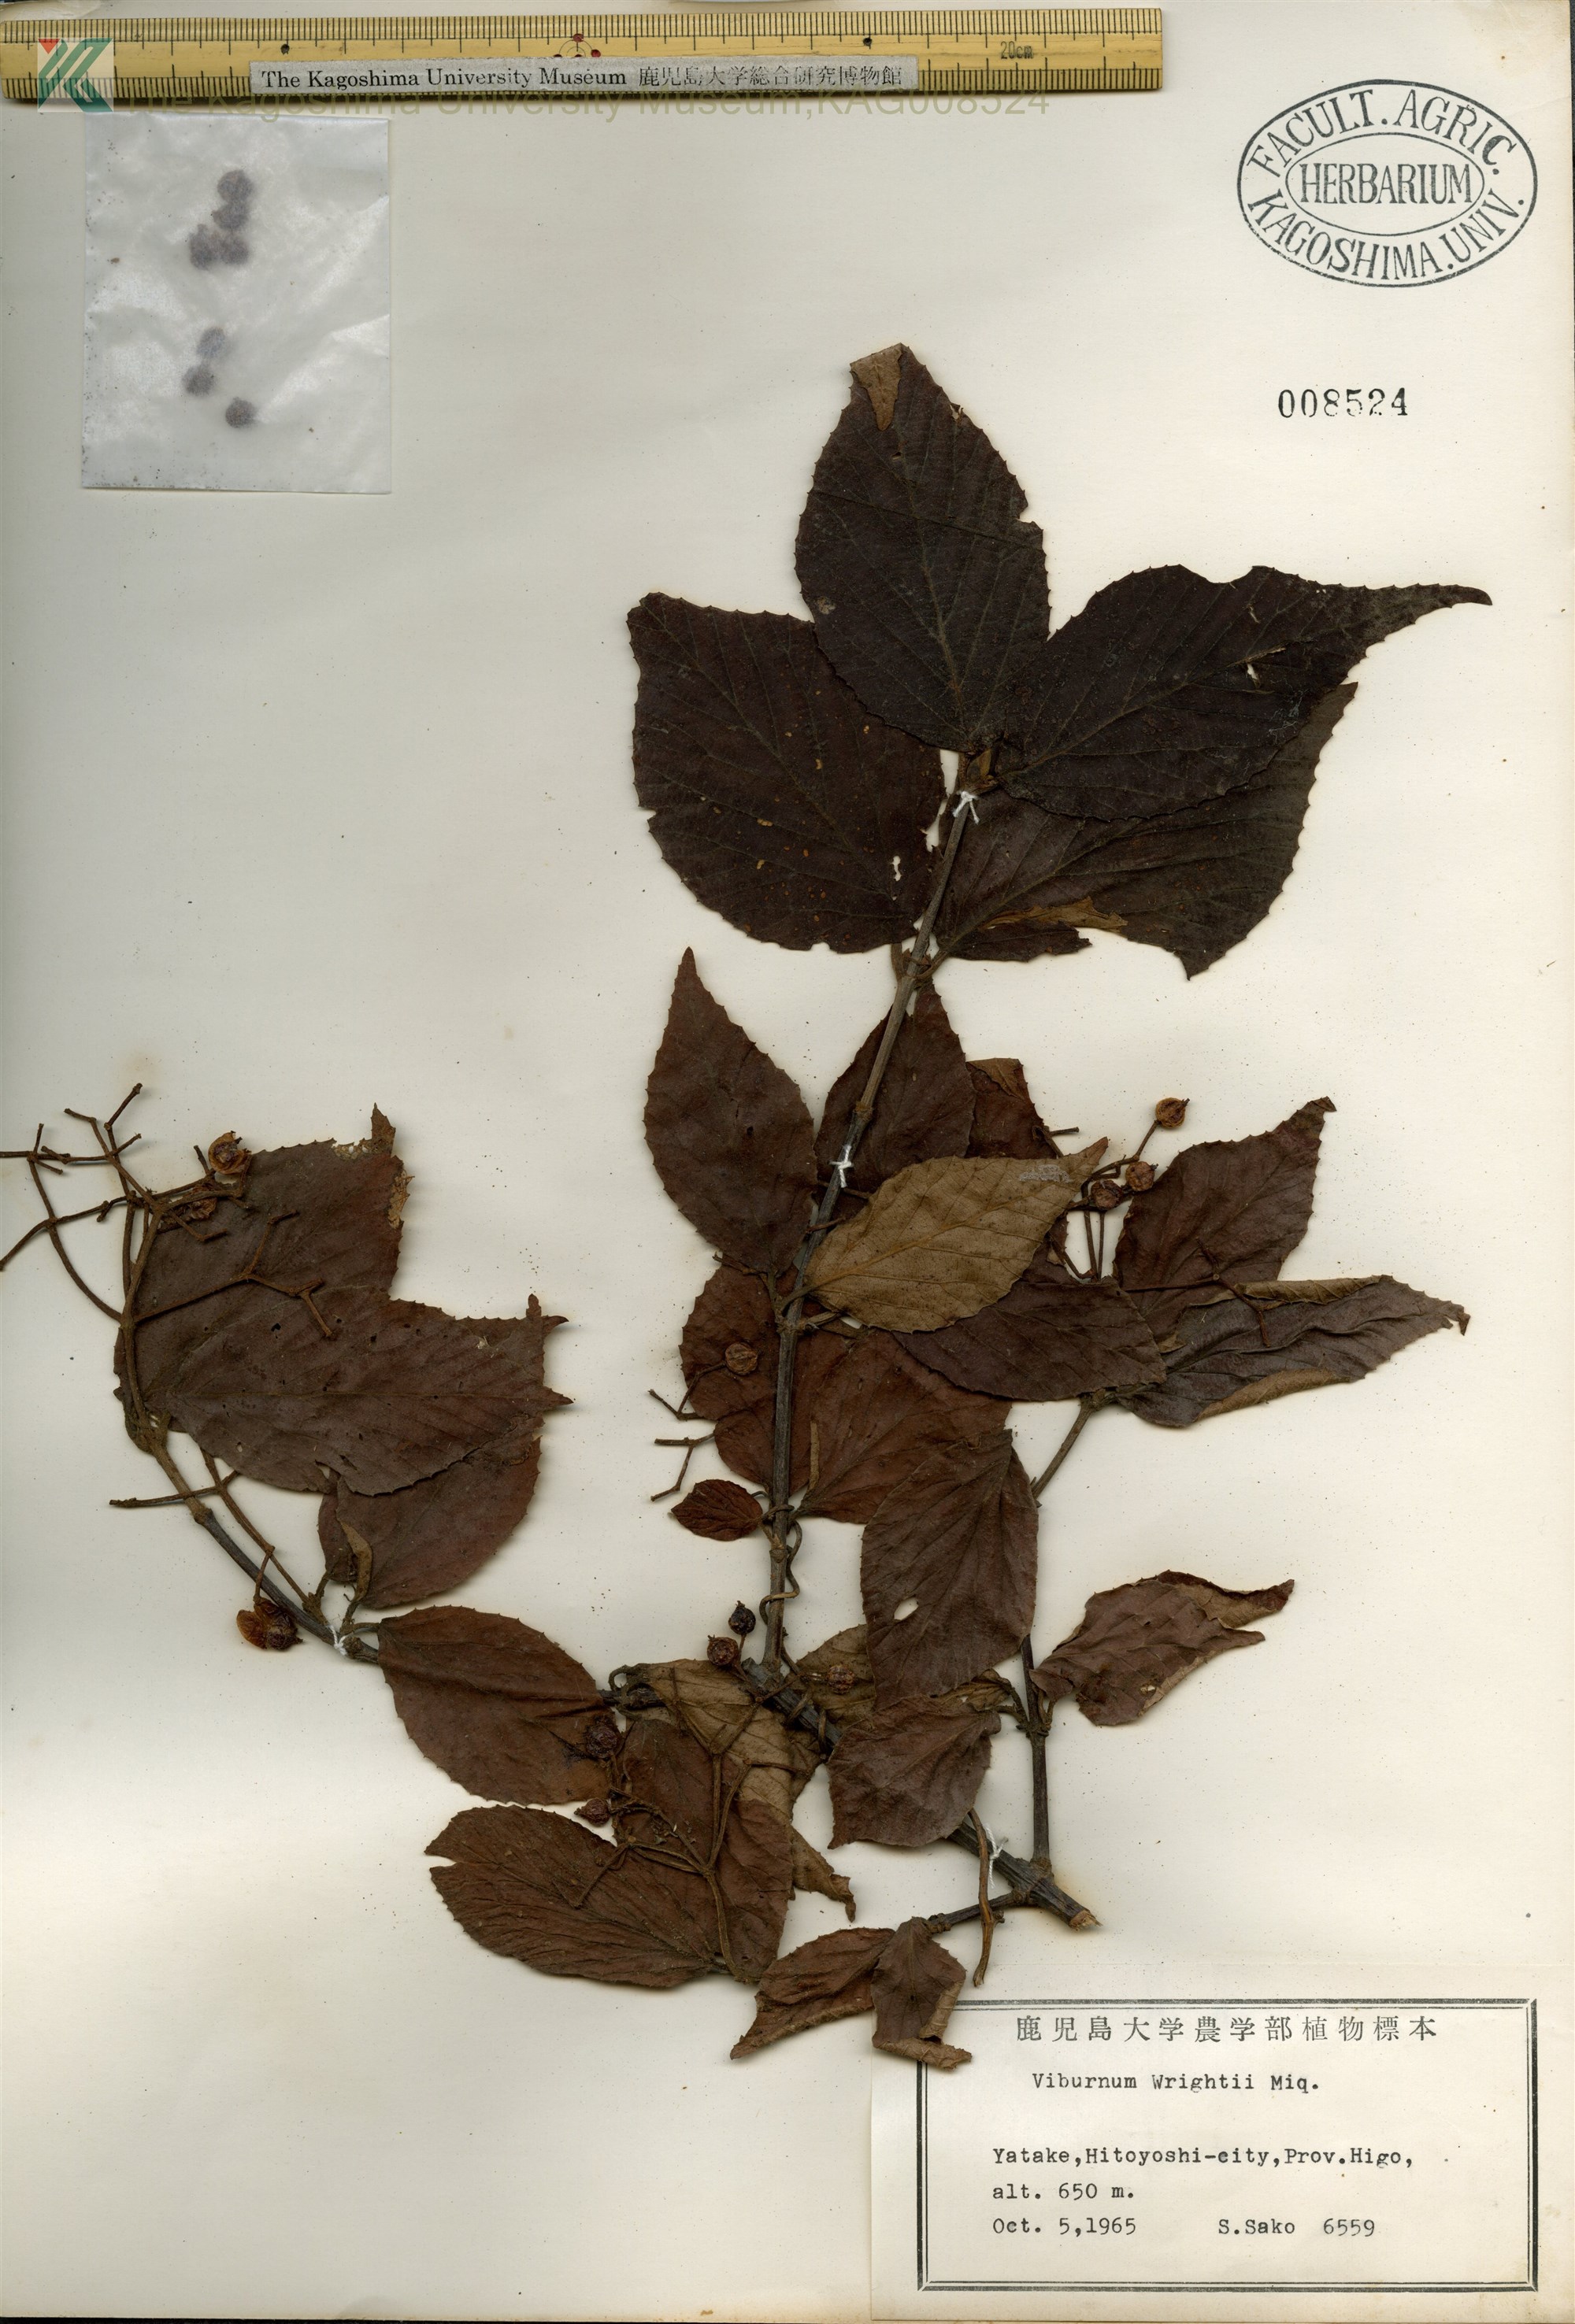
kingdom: Plantae
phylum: Tracheophyta
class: Magnoliopsida
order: Dipsacales
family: Viburnaceae
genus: Viburnum
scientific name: Viburnum erosum
